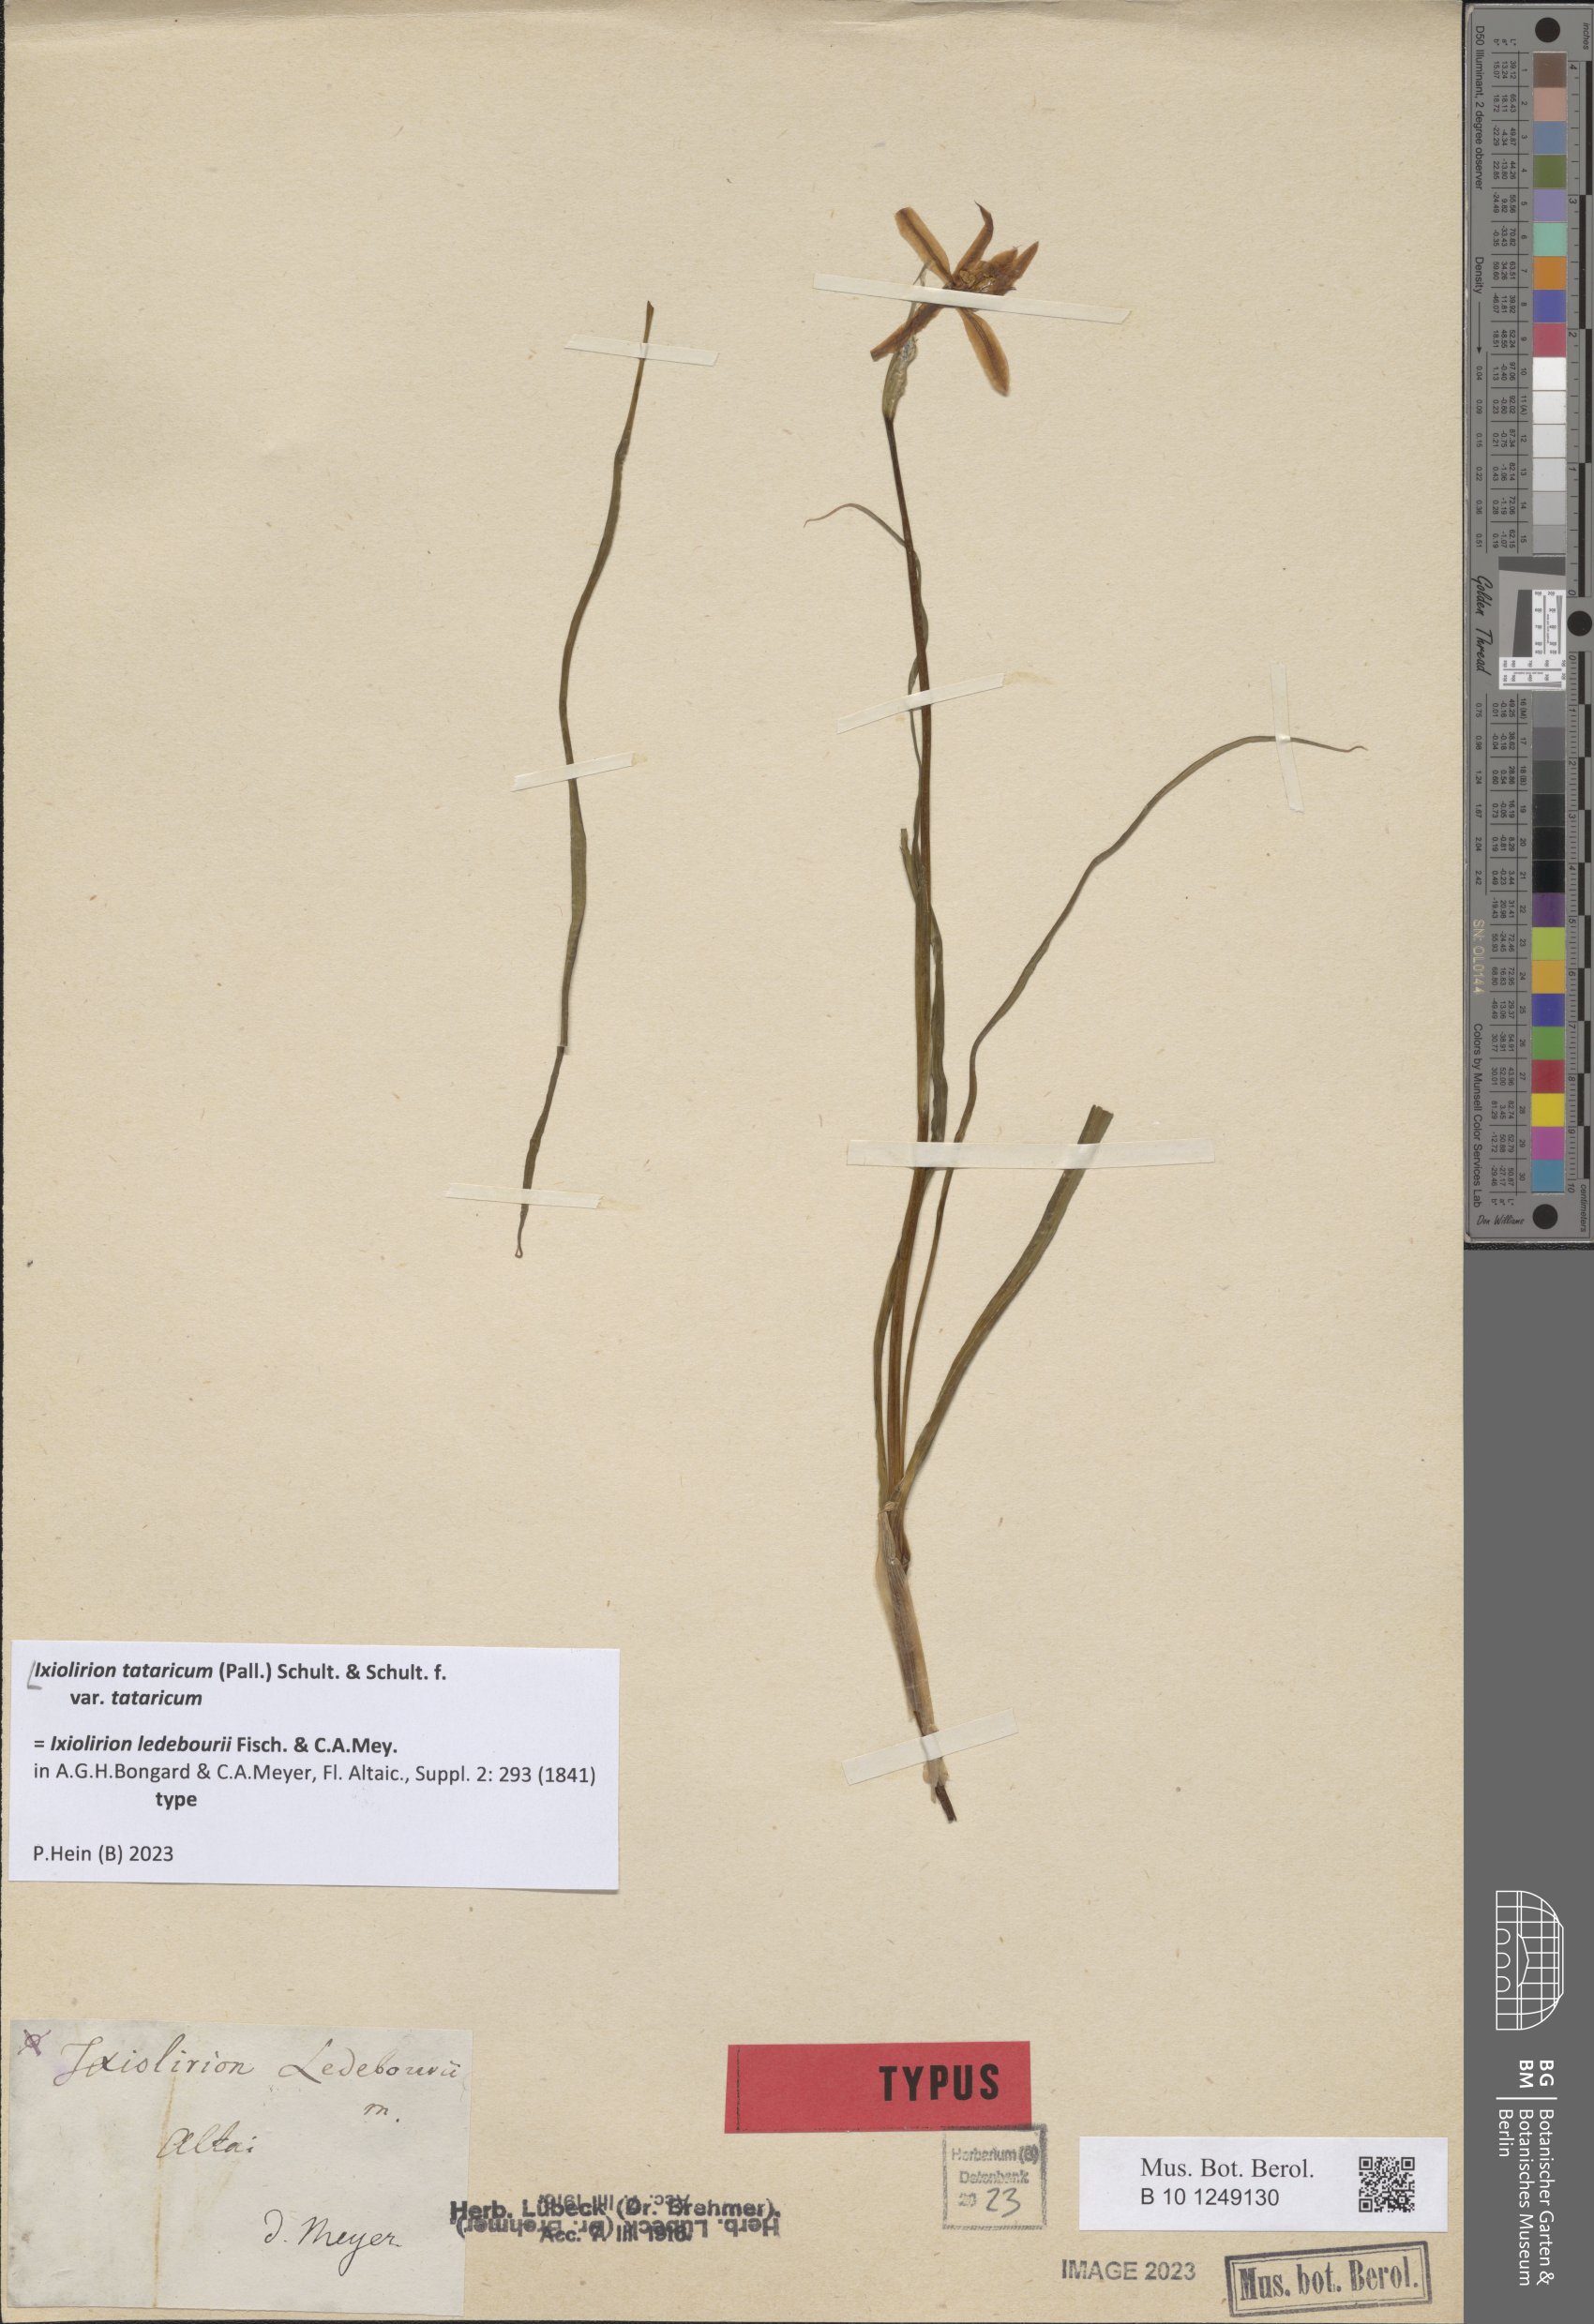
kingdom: Plantae
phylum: Tracheophyta
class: Liliopsida
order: Asparagales
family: Ixioliriaceae
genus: Ixiolirion
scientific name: Ixiolirion tataricum
